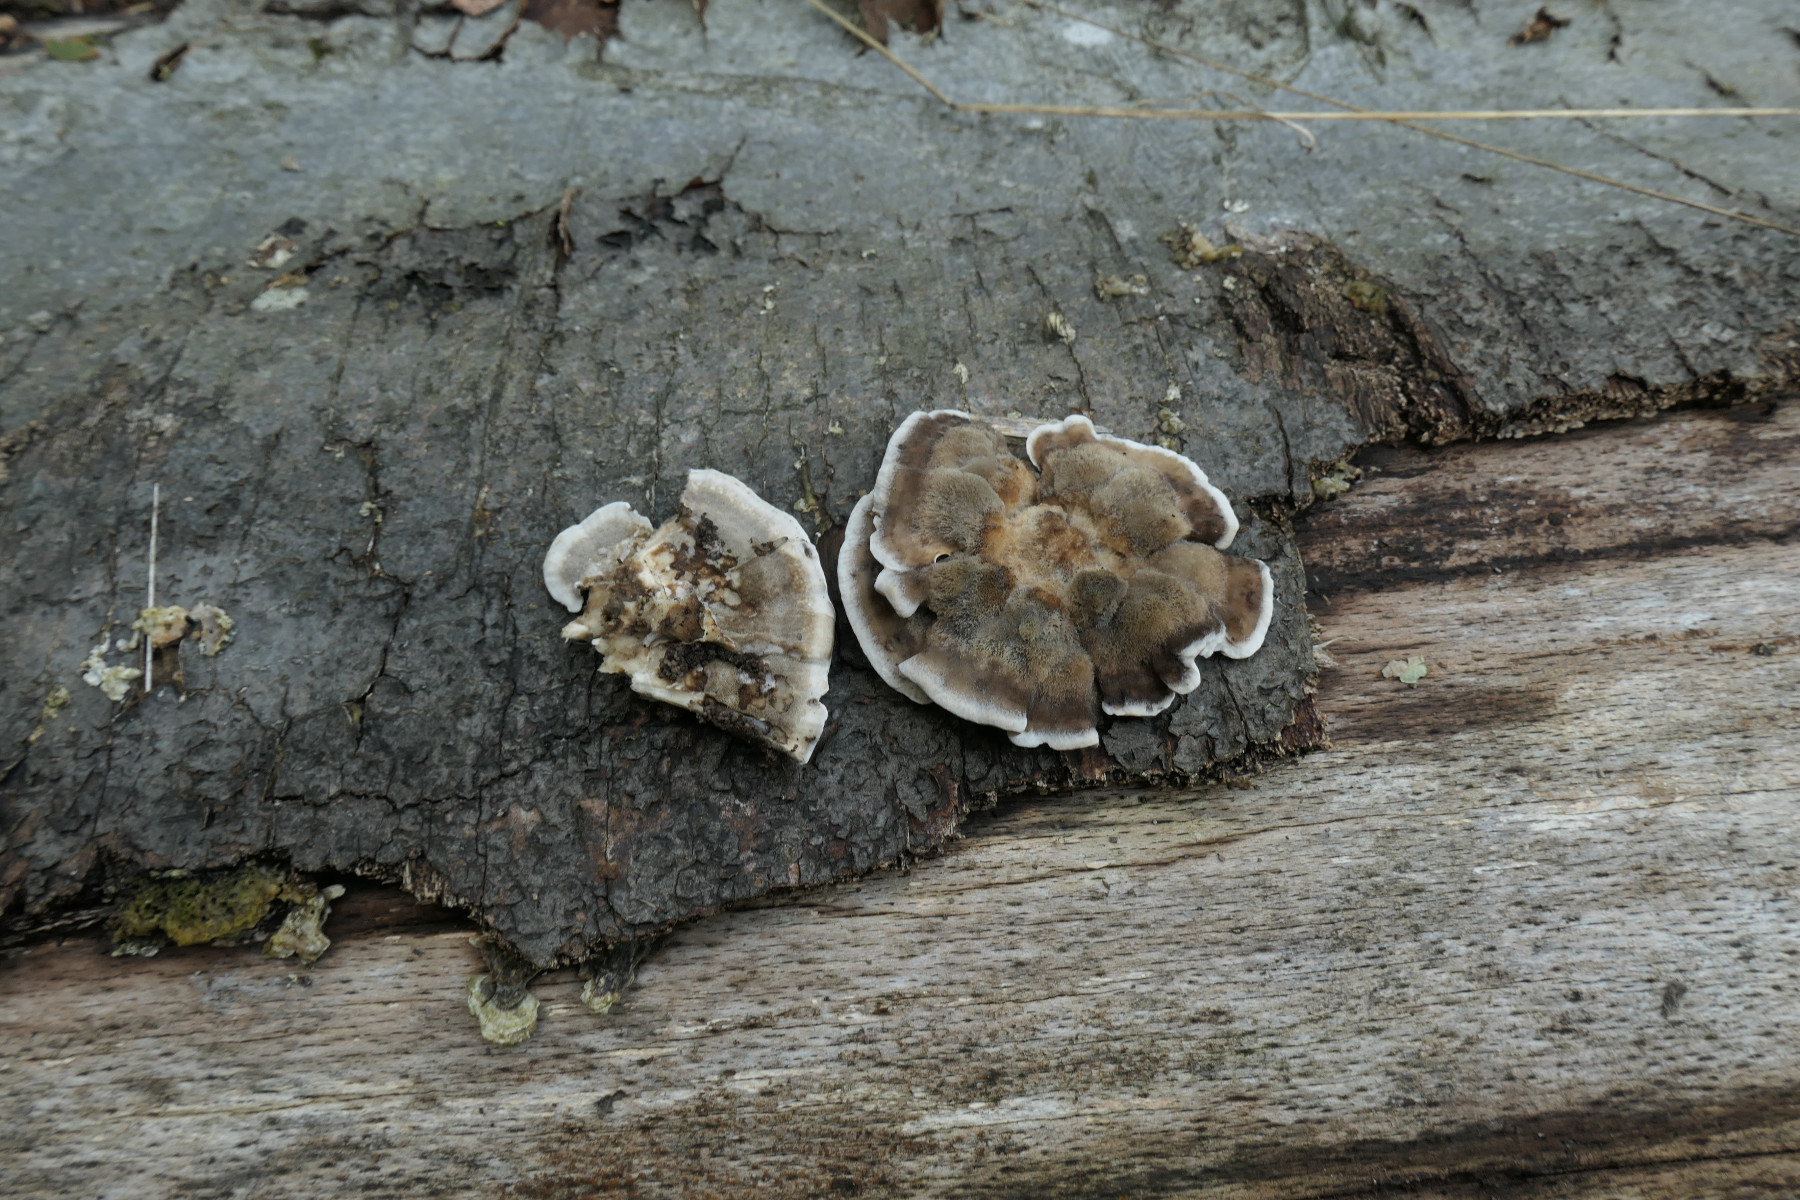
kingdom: Fungi
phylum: Basidiomycota
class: Agaricomycetes
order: Polyporales
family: Phanerochaetaceae
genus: Bjerkandera
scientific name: Bjerkandera adusta
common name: sveden sodporesvamp
